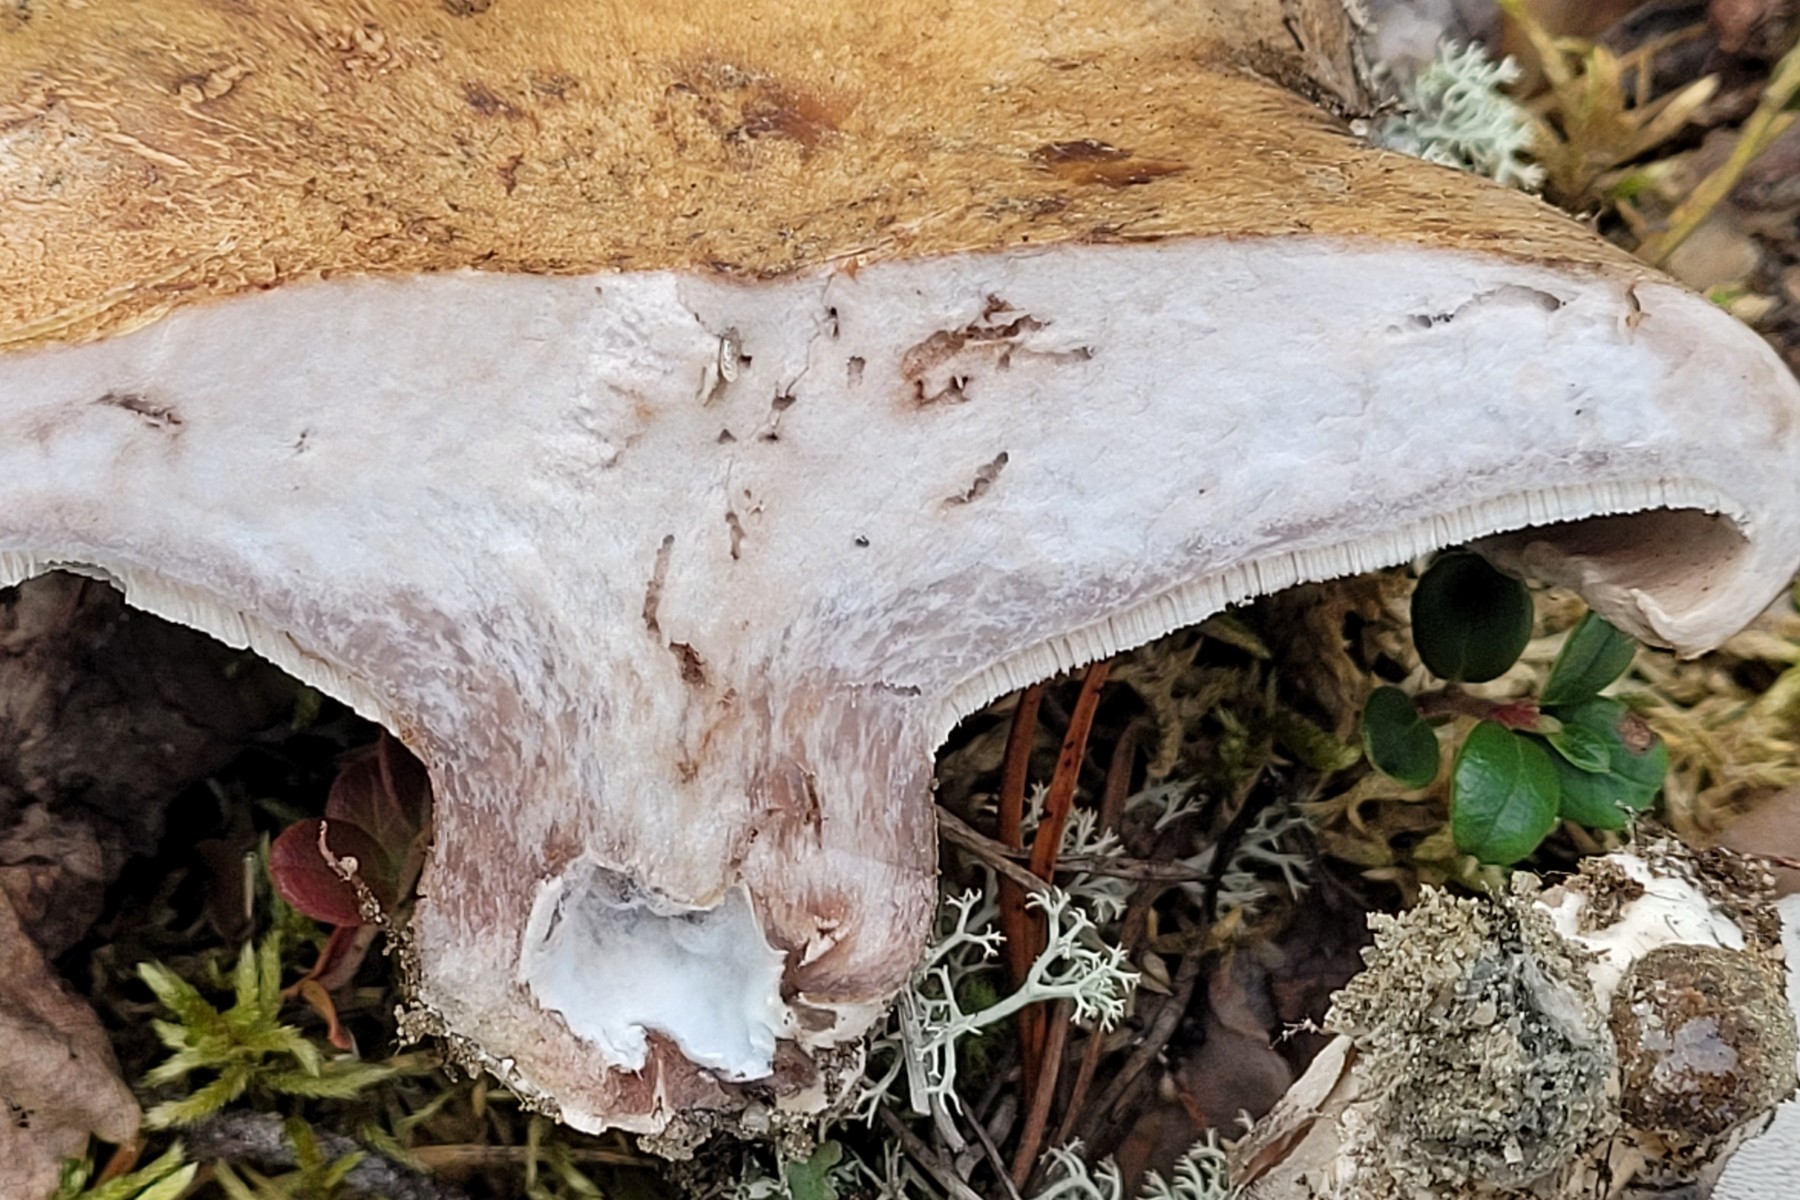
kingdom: Fungi
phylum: Basidiomycota
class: Agaricomycetes
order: Thelephorales
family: Bankeraceae
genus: Boletopsis
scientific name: Boletopsis grisea
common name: grå troldporesvamp
